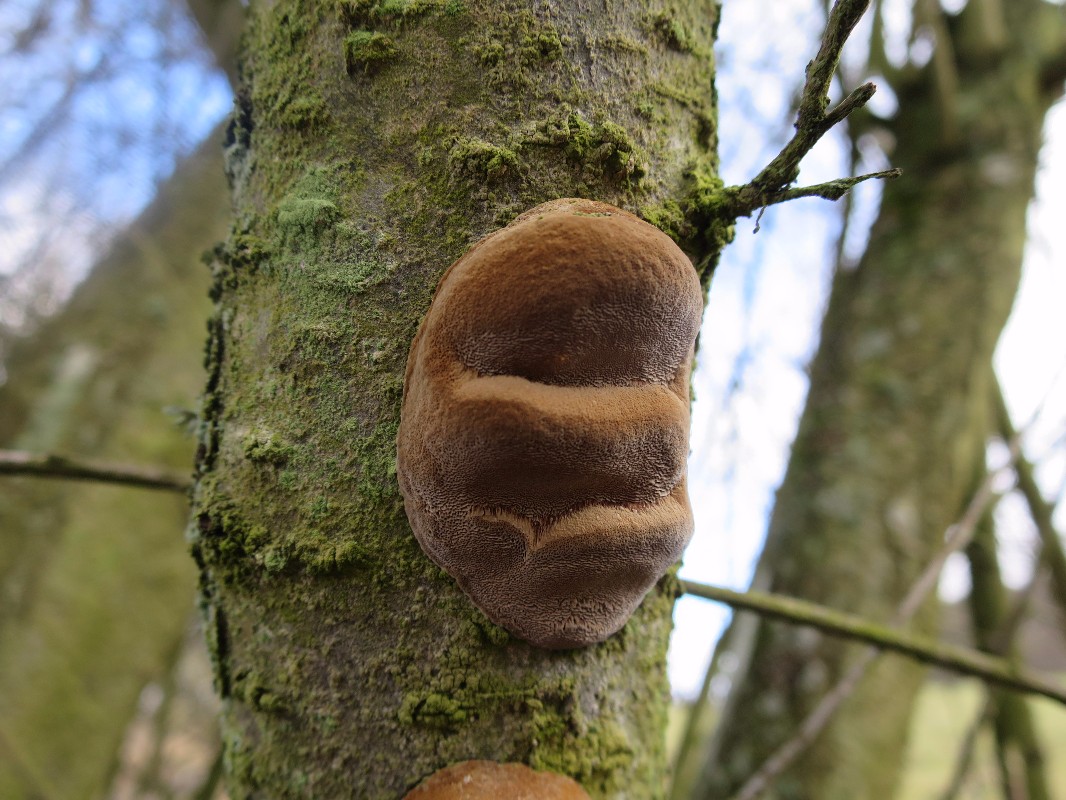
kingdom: Fungi
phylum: Basidiomycota
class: Agaricomycetes
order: Hymenochaetales
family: Hymenochaetaceae
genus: Phellinus
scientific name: Phellinus pomaceus
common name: blomme-ildporesvamp
